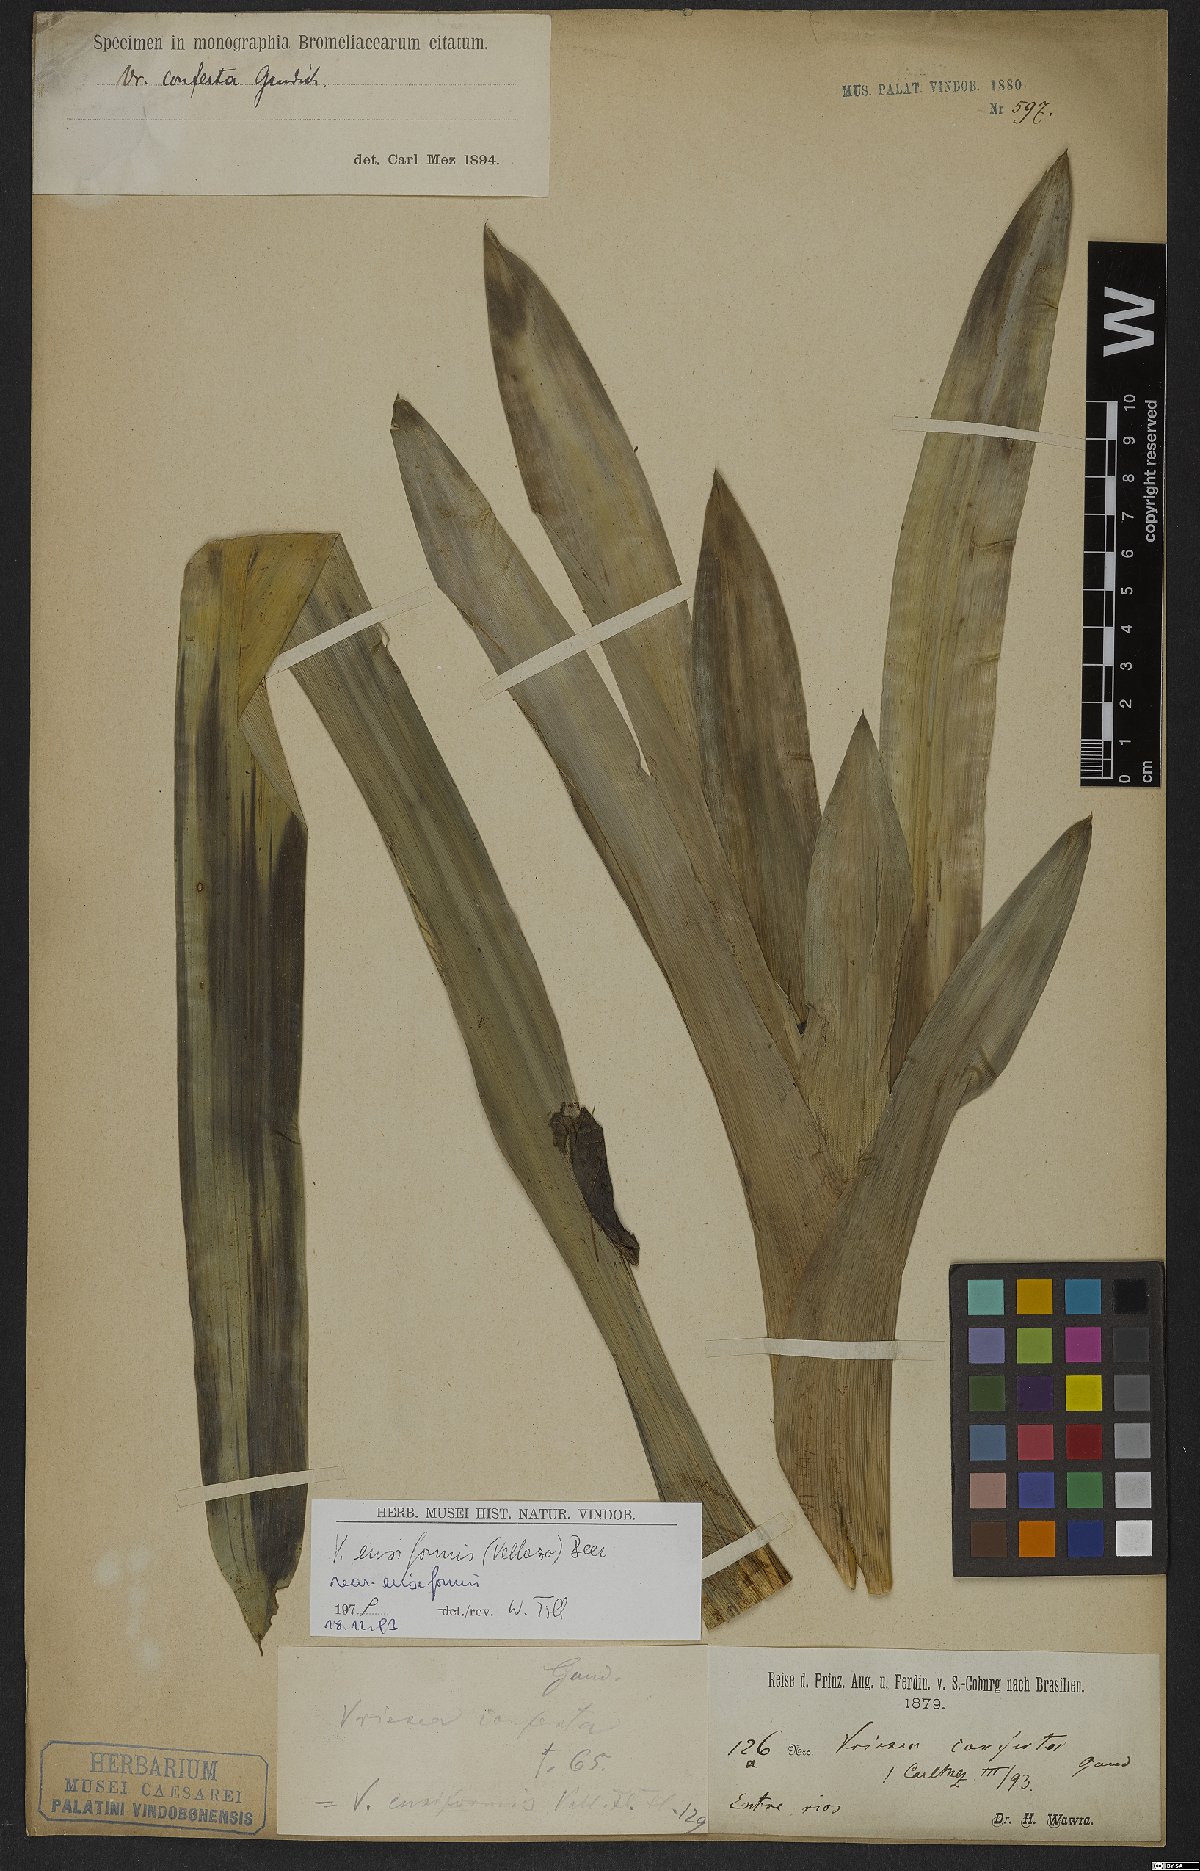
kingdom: Plantae
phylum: Tracheophyta
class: Liliopsida
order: Poales
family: Bromeliaceae
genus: Vriesea
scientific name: Vriesea ensiformis
